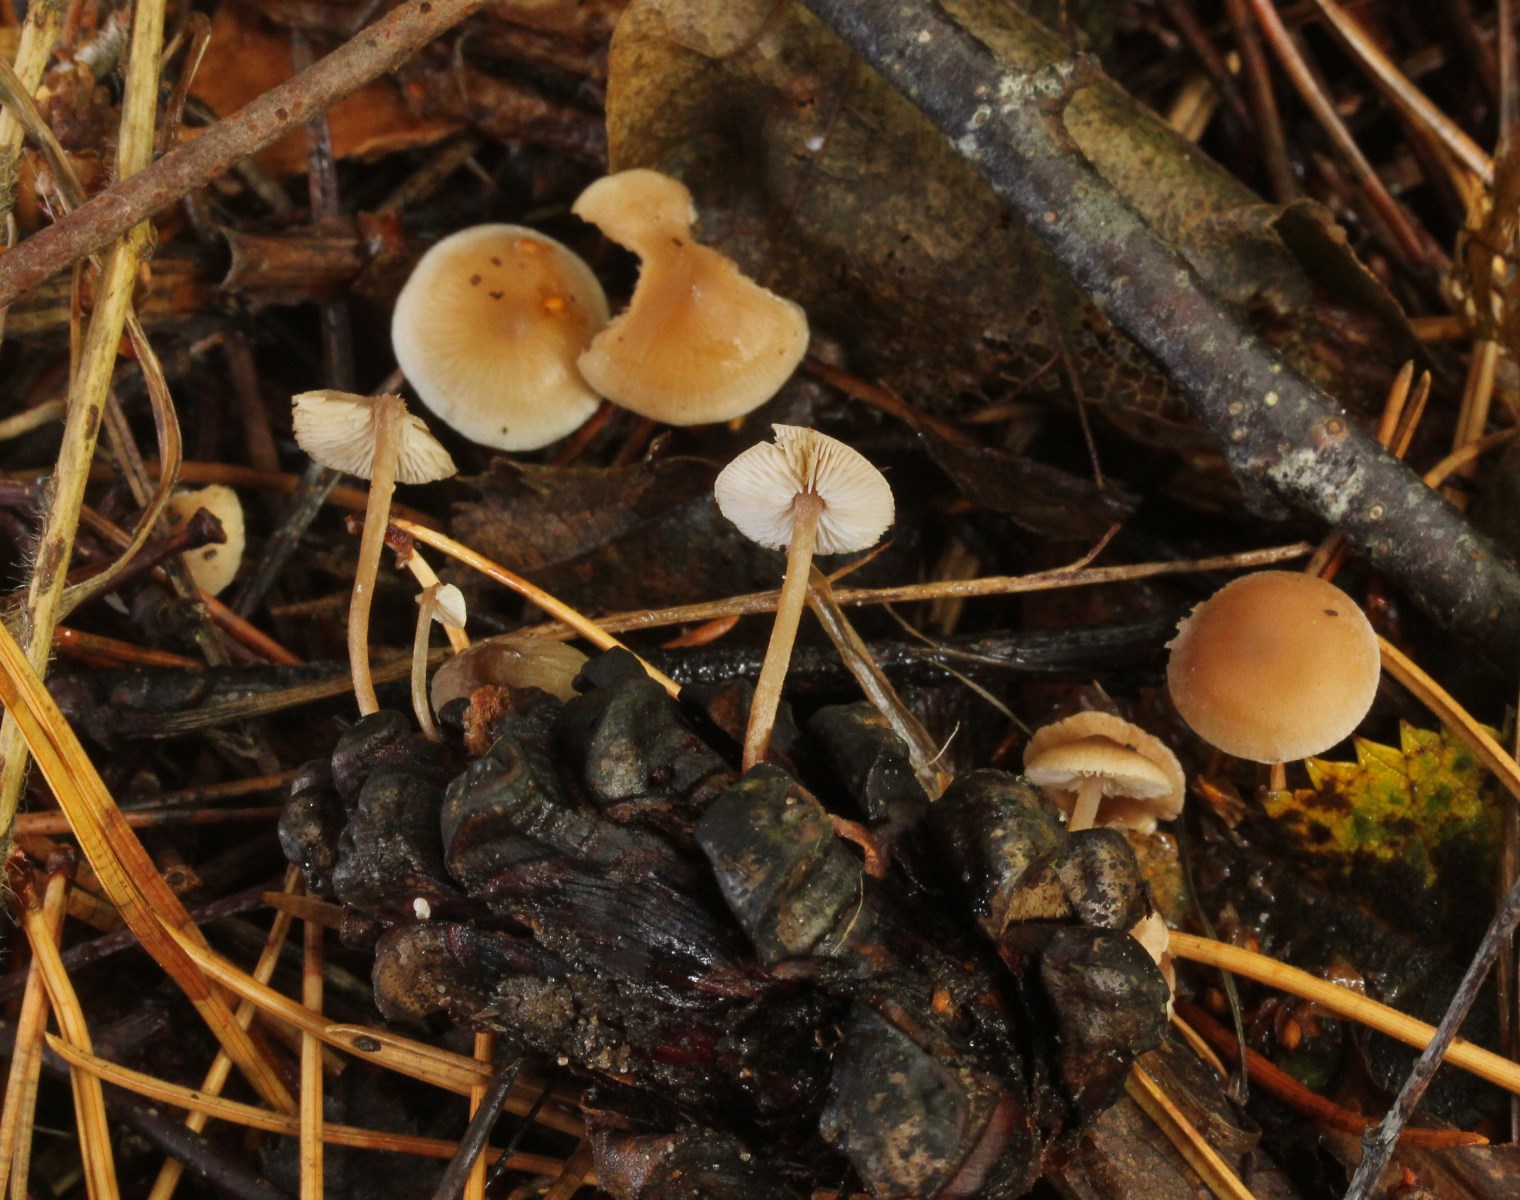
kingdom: Fungi
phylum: Basidiomycota
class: Agaricomycetes
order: Agaricales
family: Marasmiaceae
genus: Baeospora
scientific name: Baeospora myosura
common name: koglebruskhat
